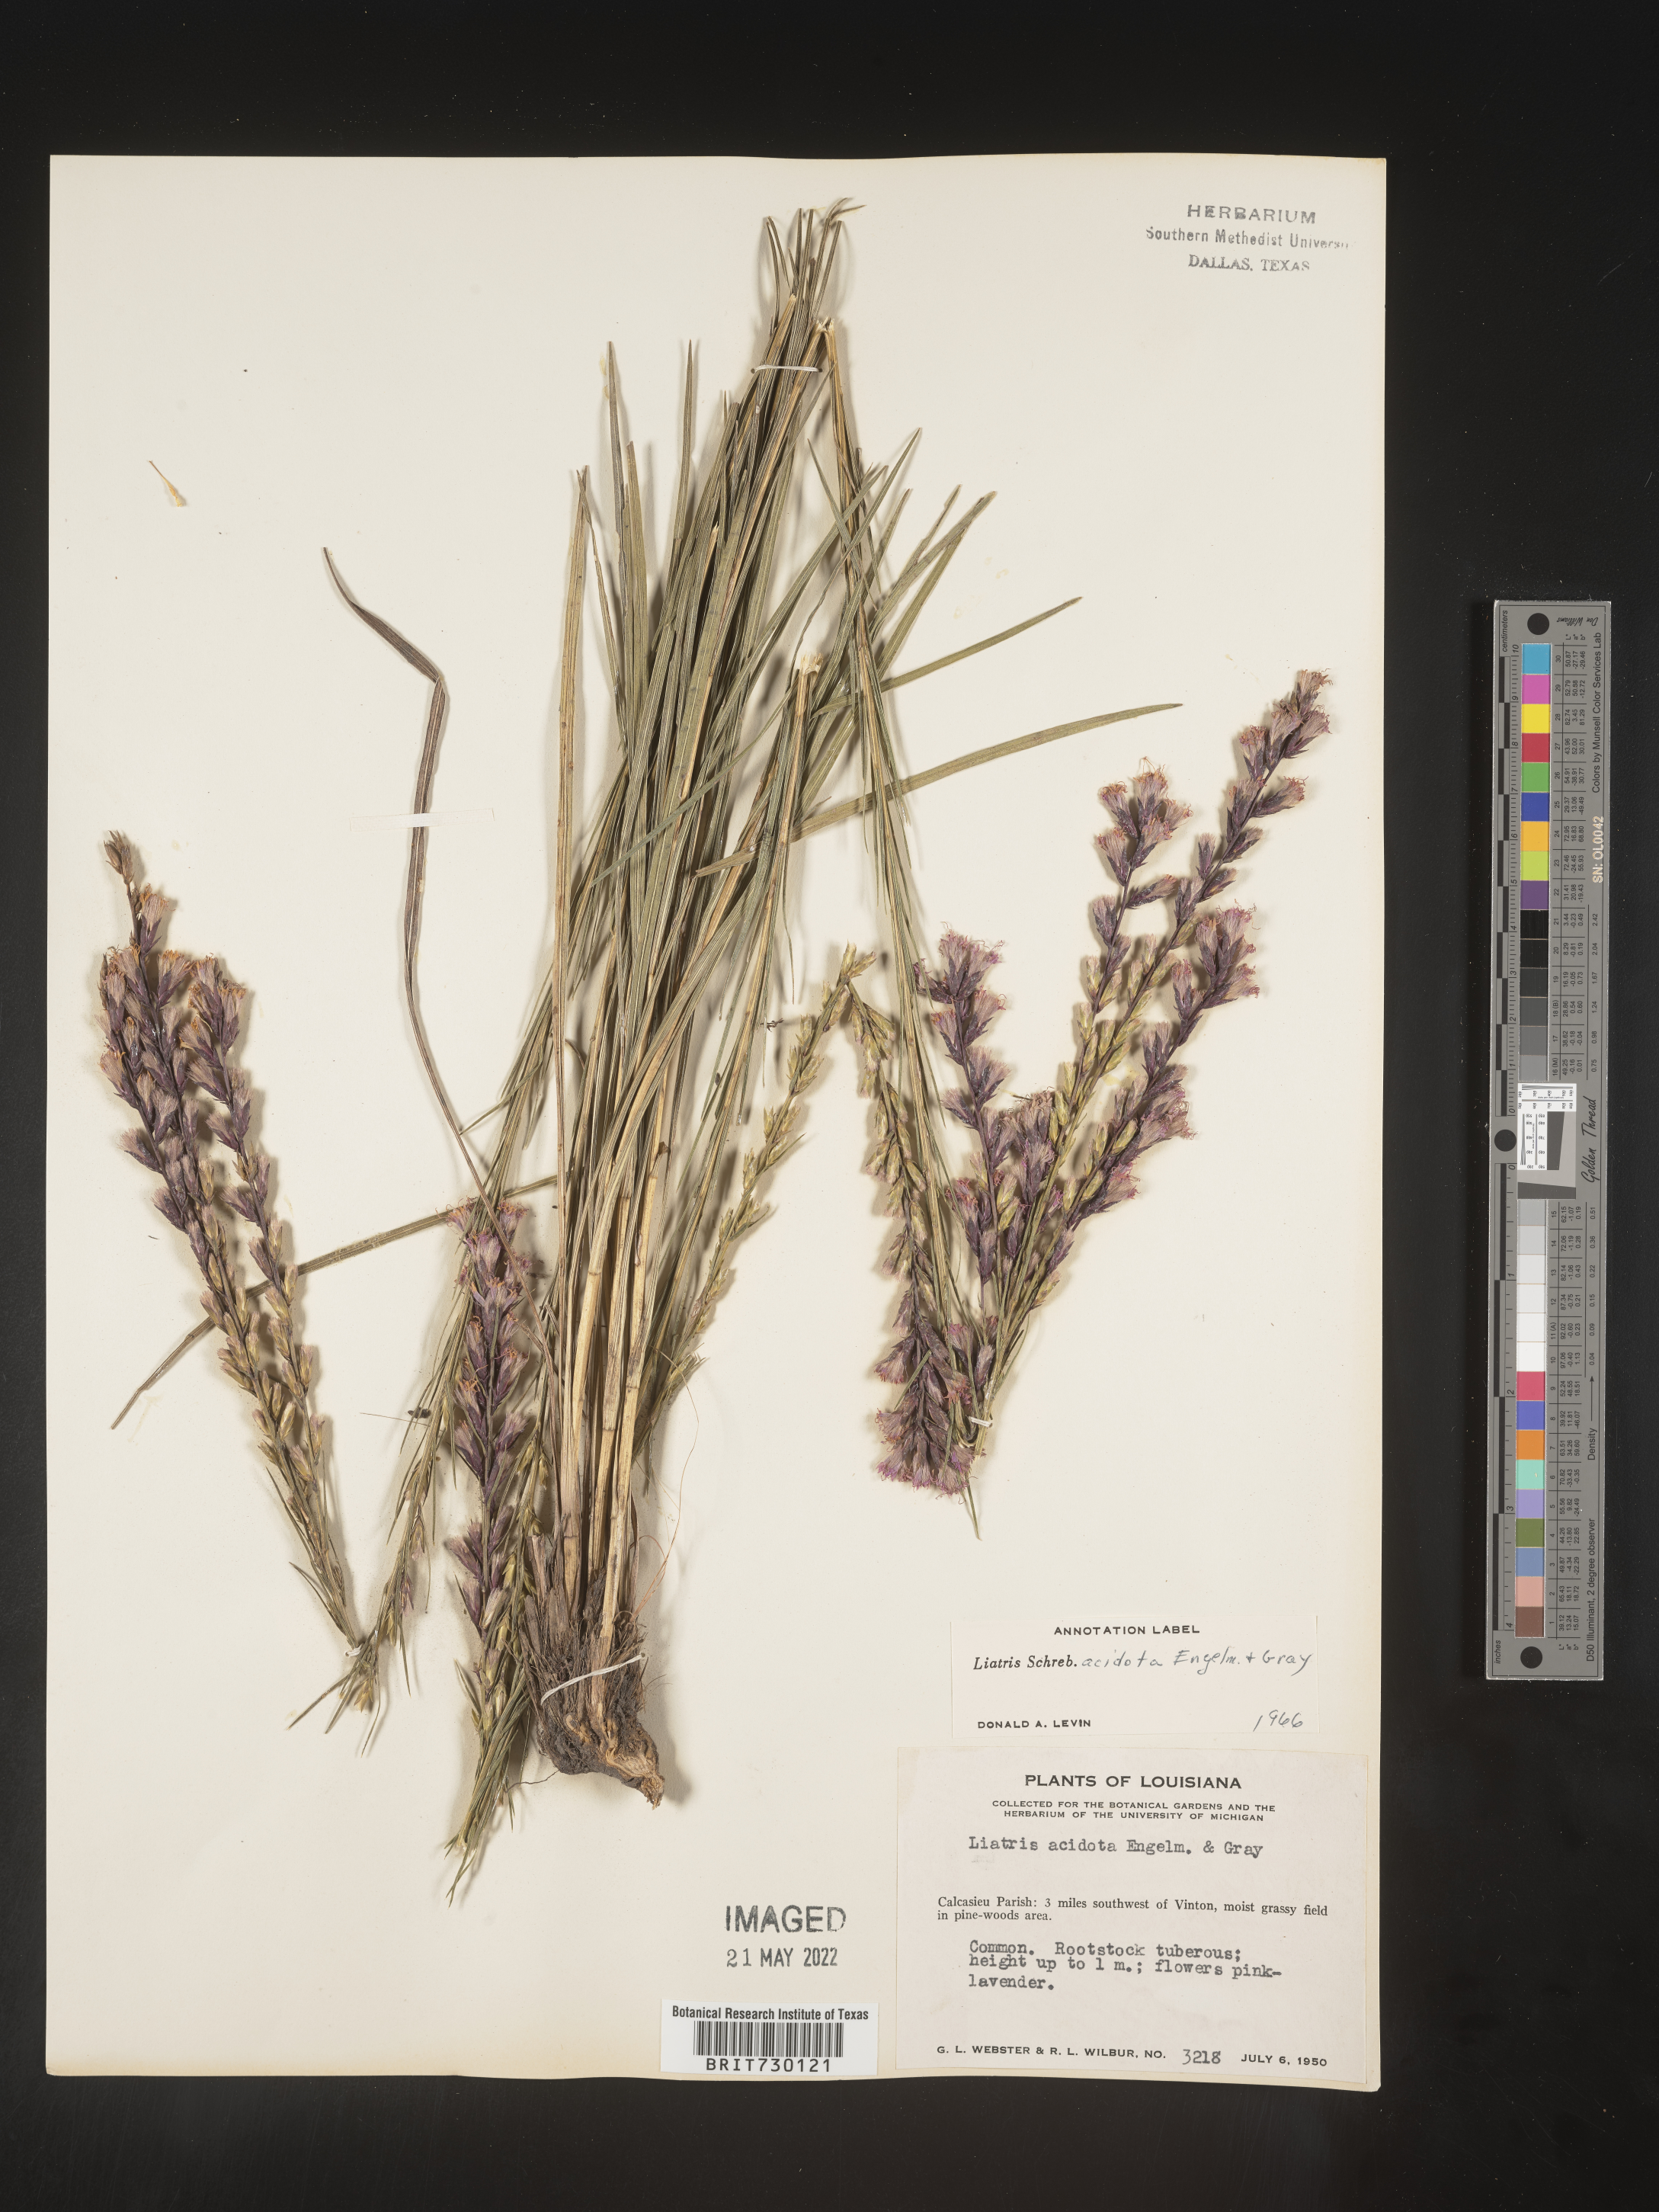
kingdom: Plantae
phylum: Tracheophyta
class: Magnoliopsida
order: Asterales
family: Asteraceae
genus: Liatris
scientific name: Liatris acidota
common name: Gulf coast gayfeather
